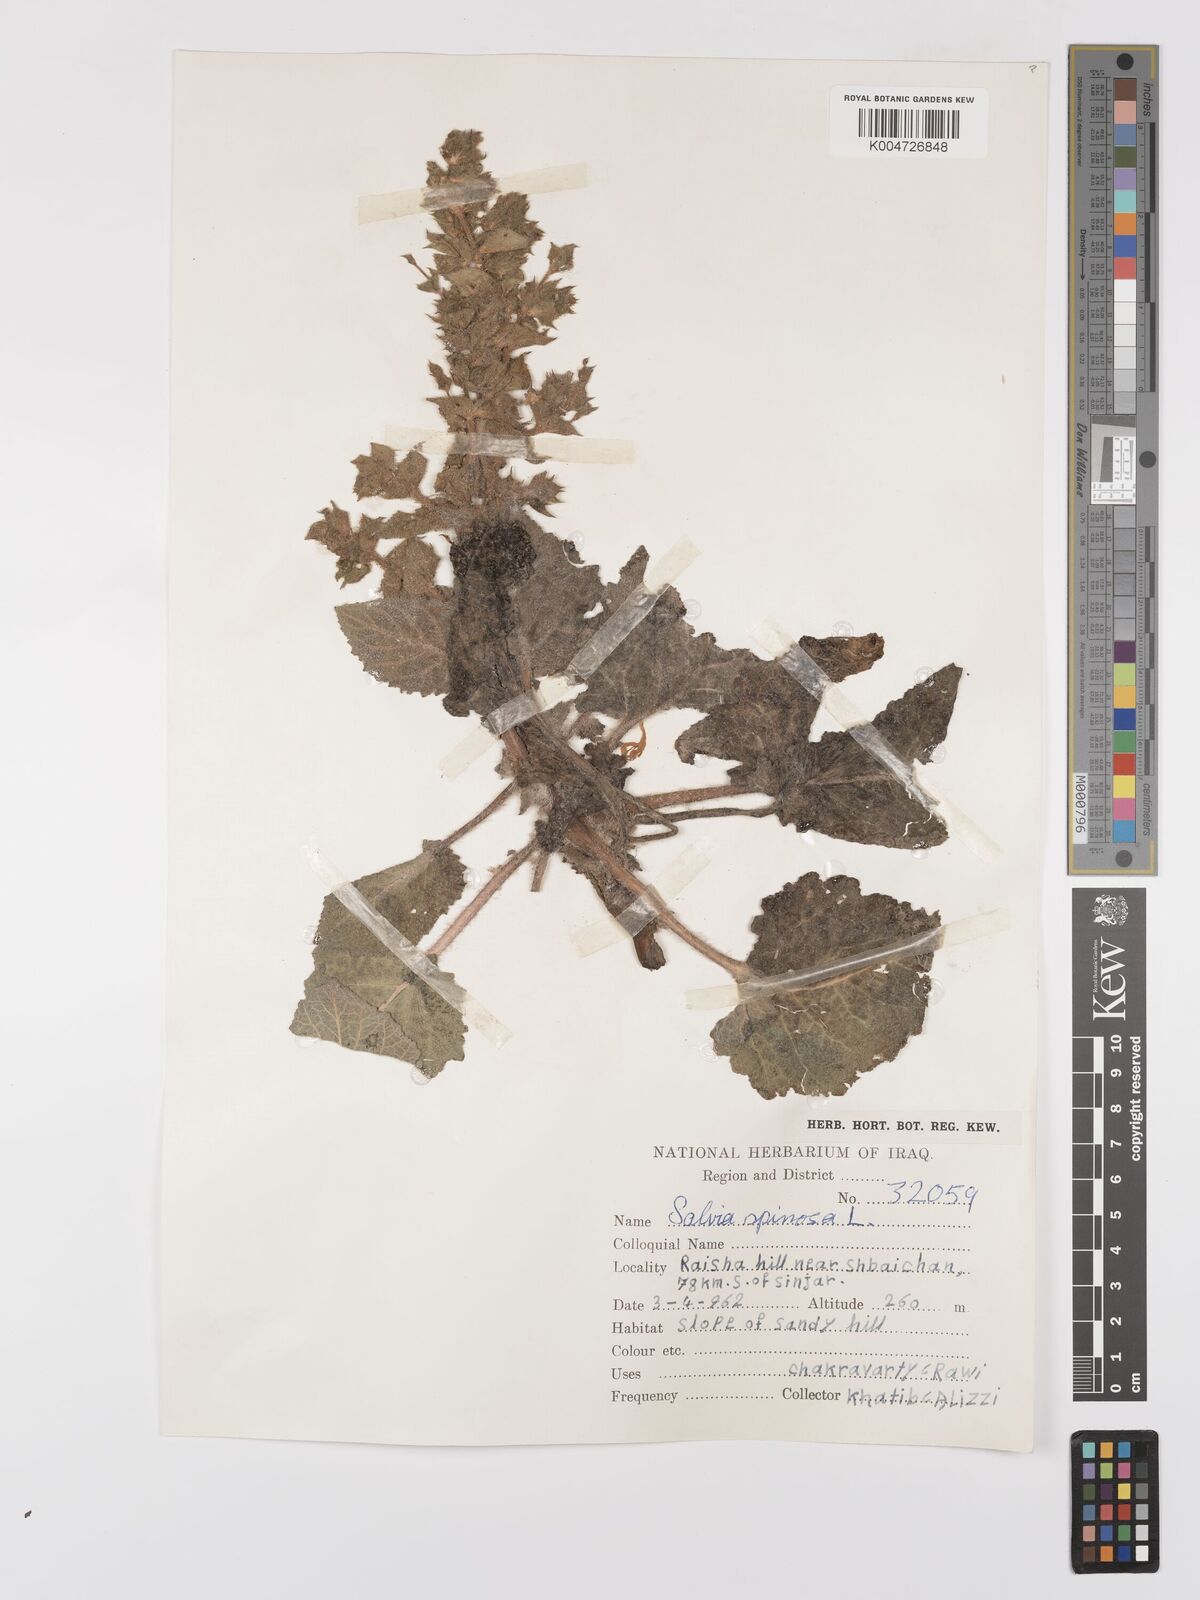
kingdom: Plantae
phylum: Tracheophyta
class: Magnoliopsida
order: Lamiales
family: Lamiaceae
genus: Salvia
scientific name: Salvia
